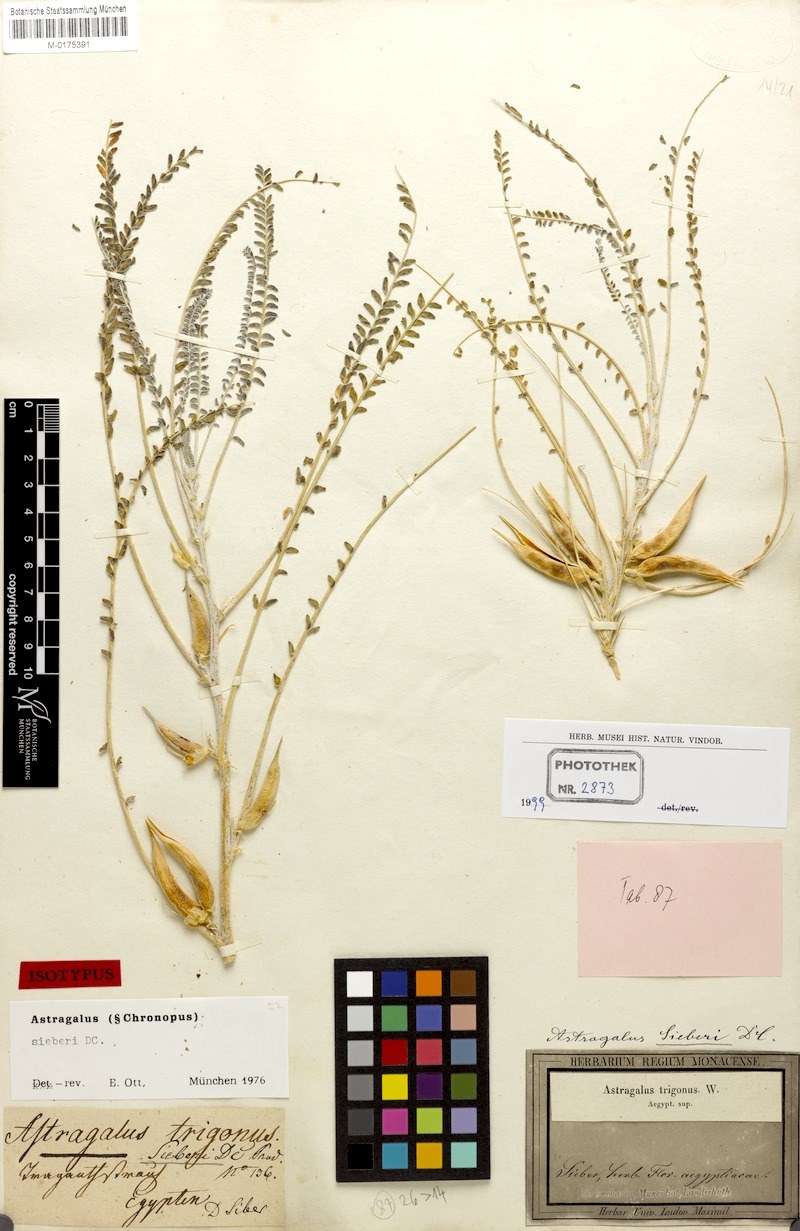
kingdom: Plantae
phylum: Tracheophyta
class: Magnoliopsida
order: Fabales
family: Fabaceae
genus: Astragalus
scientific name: Astragalus sieberi
